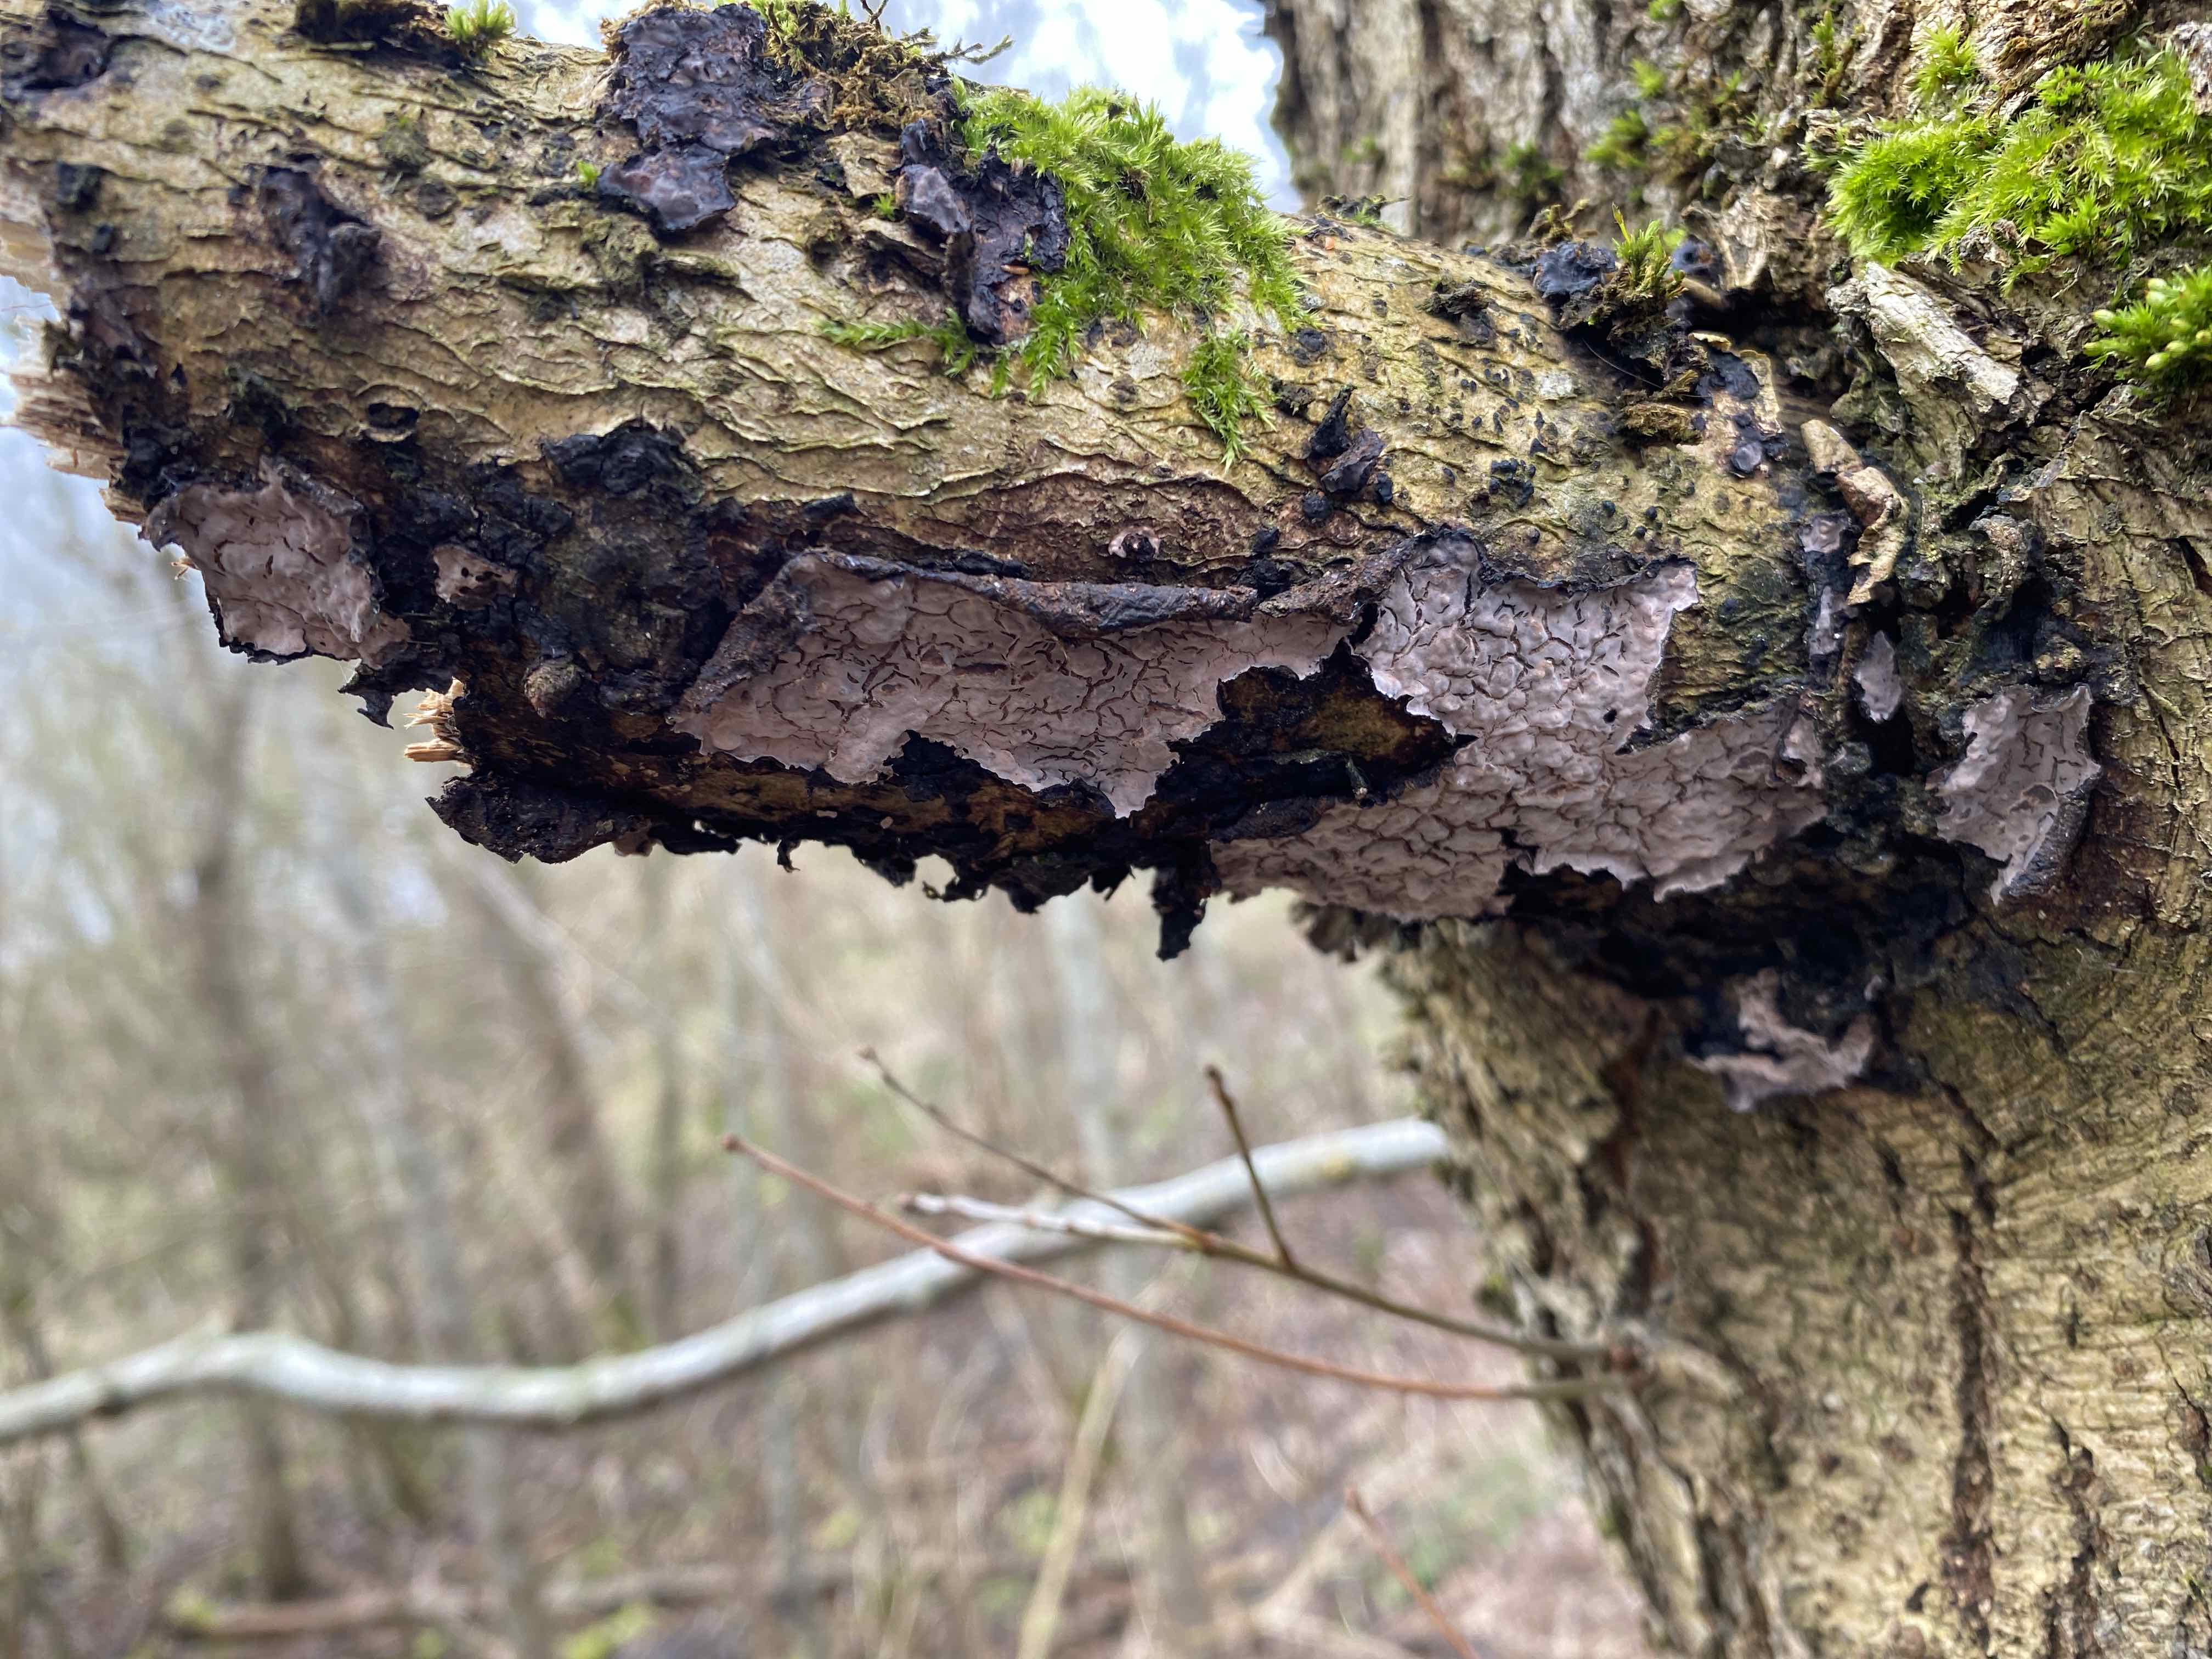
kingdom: Fungi
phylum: Basidiomycota
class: Agaricomycetes
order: Russulales
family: Peniophoraceae
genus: Peniophora
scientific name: Peniophora quercina
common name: ege-voksskind
